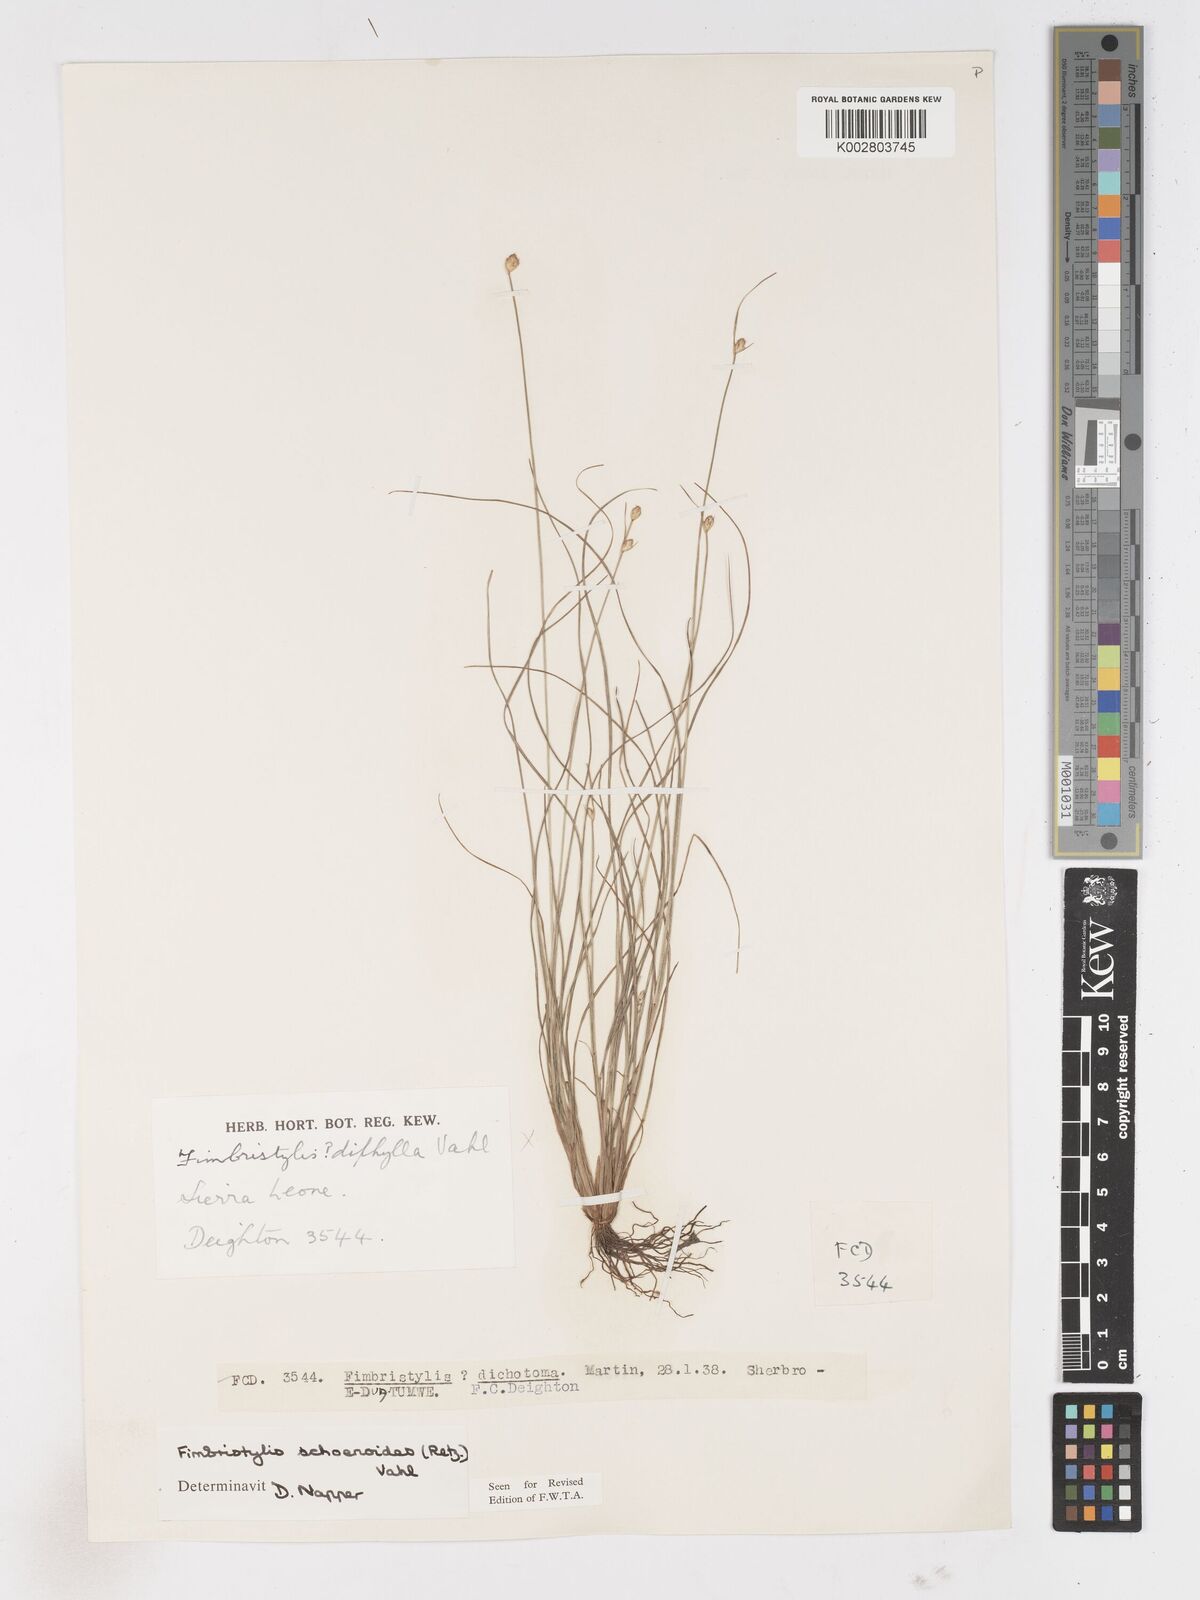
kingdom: Plantae
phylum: Tracheophyta
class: Liliopsida
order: Poales
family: Cyperaceae
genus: Fimbristylis
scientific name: Fimbristylis schoenoides
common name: Ditch fimbry
